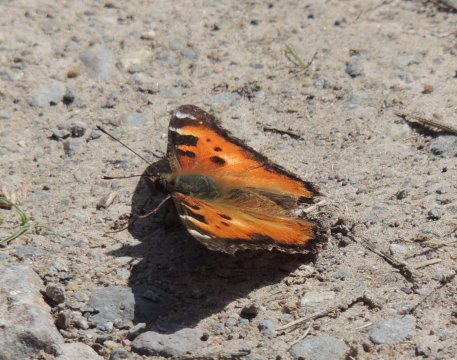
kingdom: Animalia
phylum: Arthropoda
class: Insecta
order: Lepidoptera
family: Nymphalidae
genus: Nymphalis
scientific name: Nymphalis californica
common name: California Tortoiseshell
